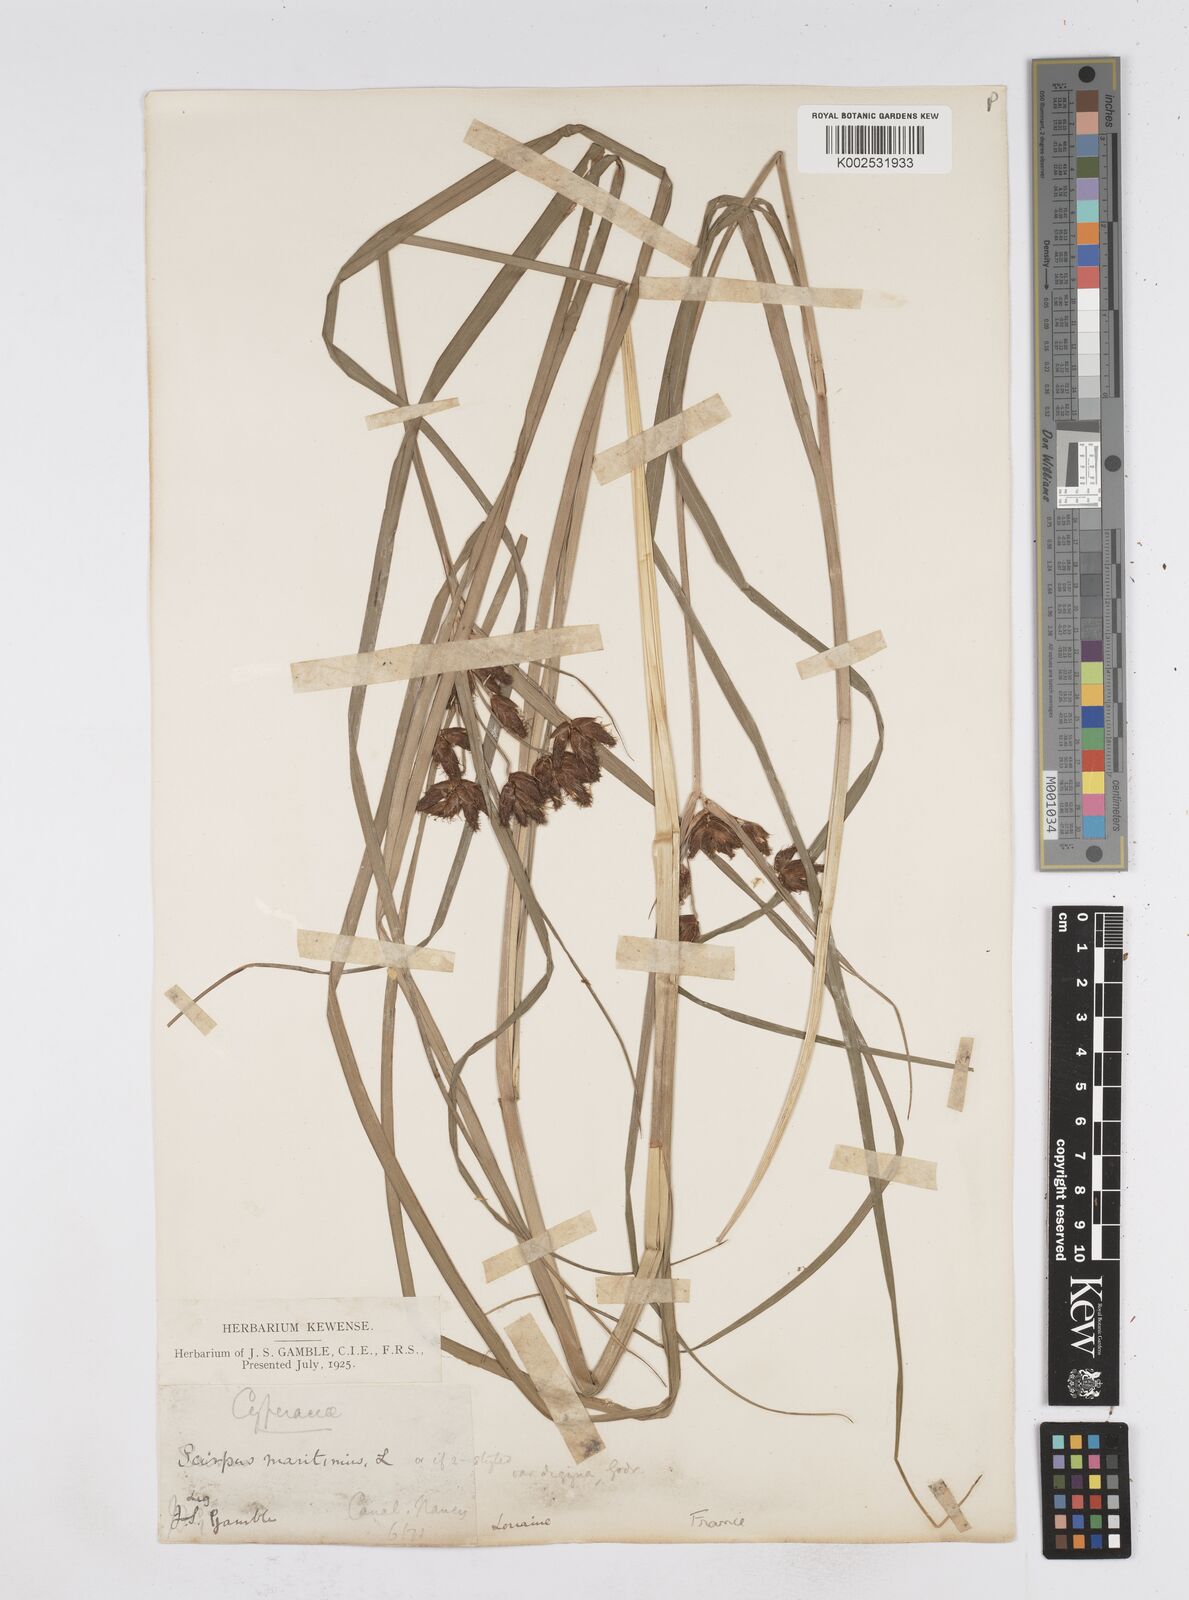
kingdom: Plantae
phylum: Tracheophyta
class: Liliopsida
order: Poales
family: Cyperaceae
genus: Bolboschoenus
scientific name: Bolboschoenus maritimus
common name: Sea club-rush
